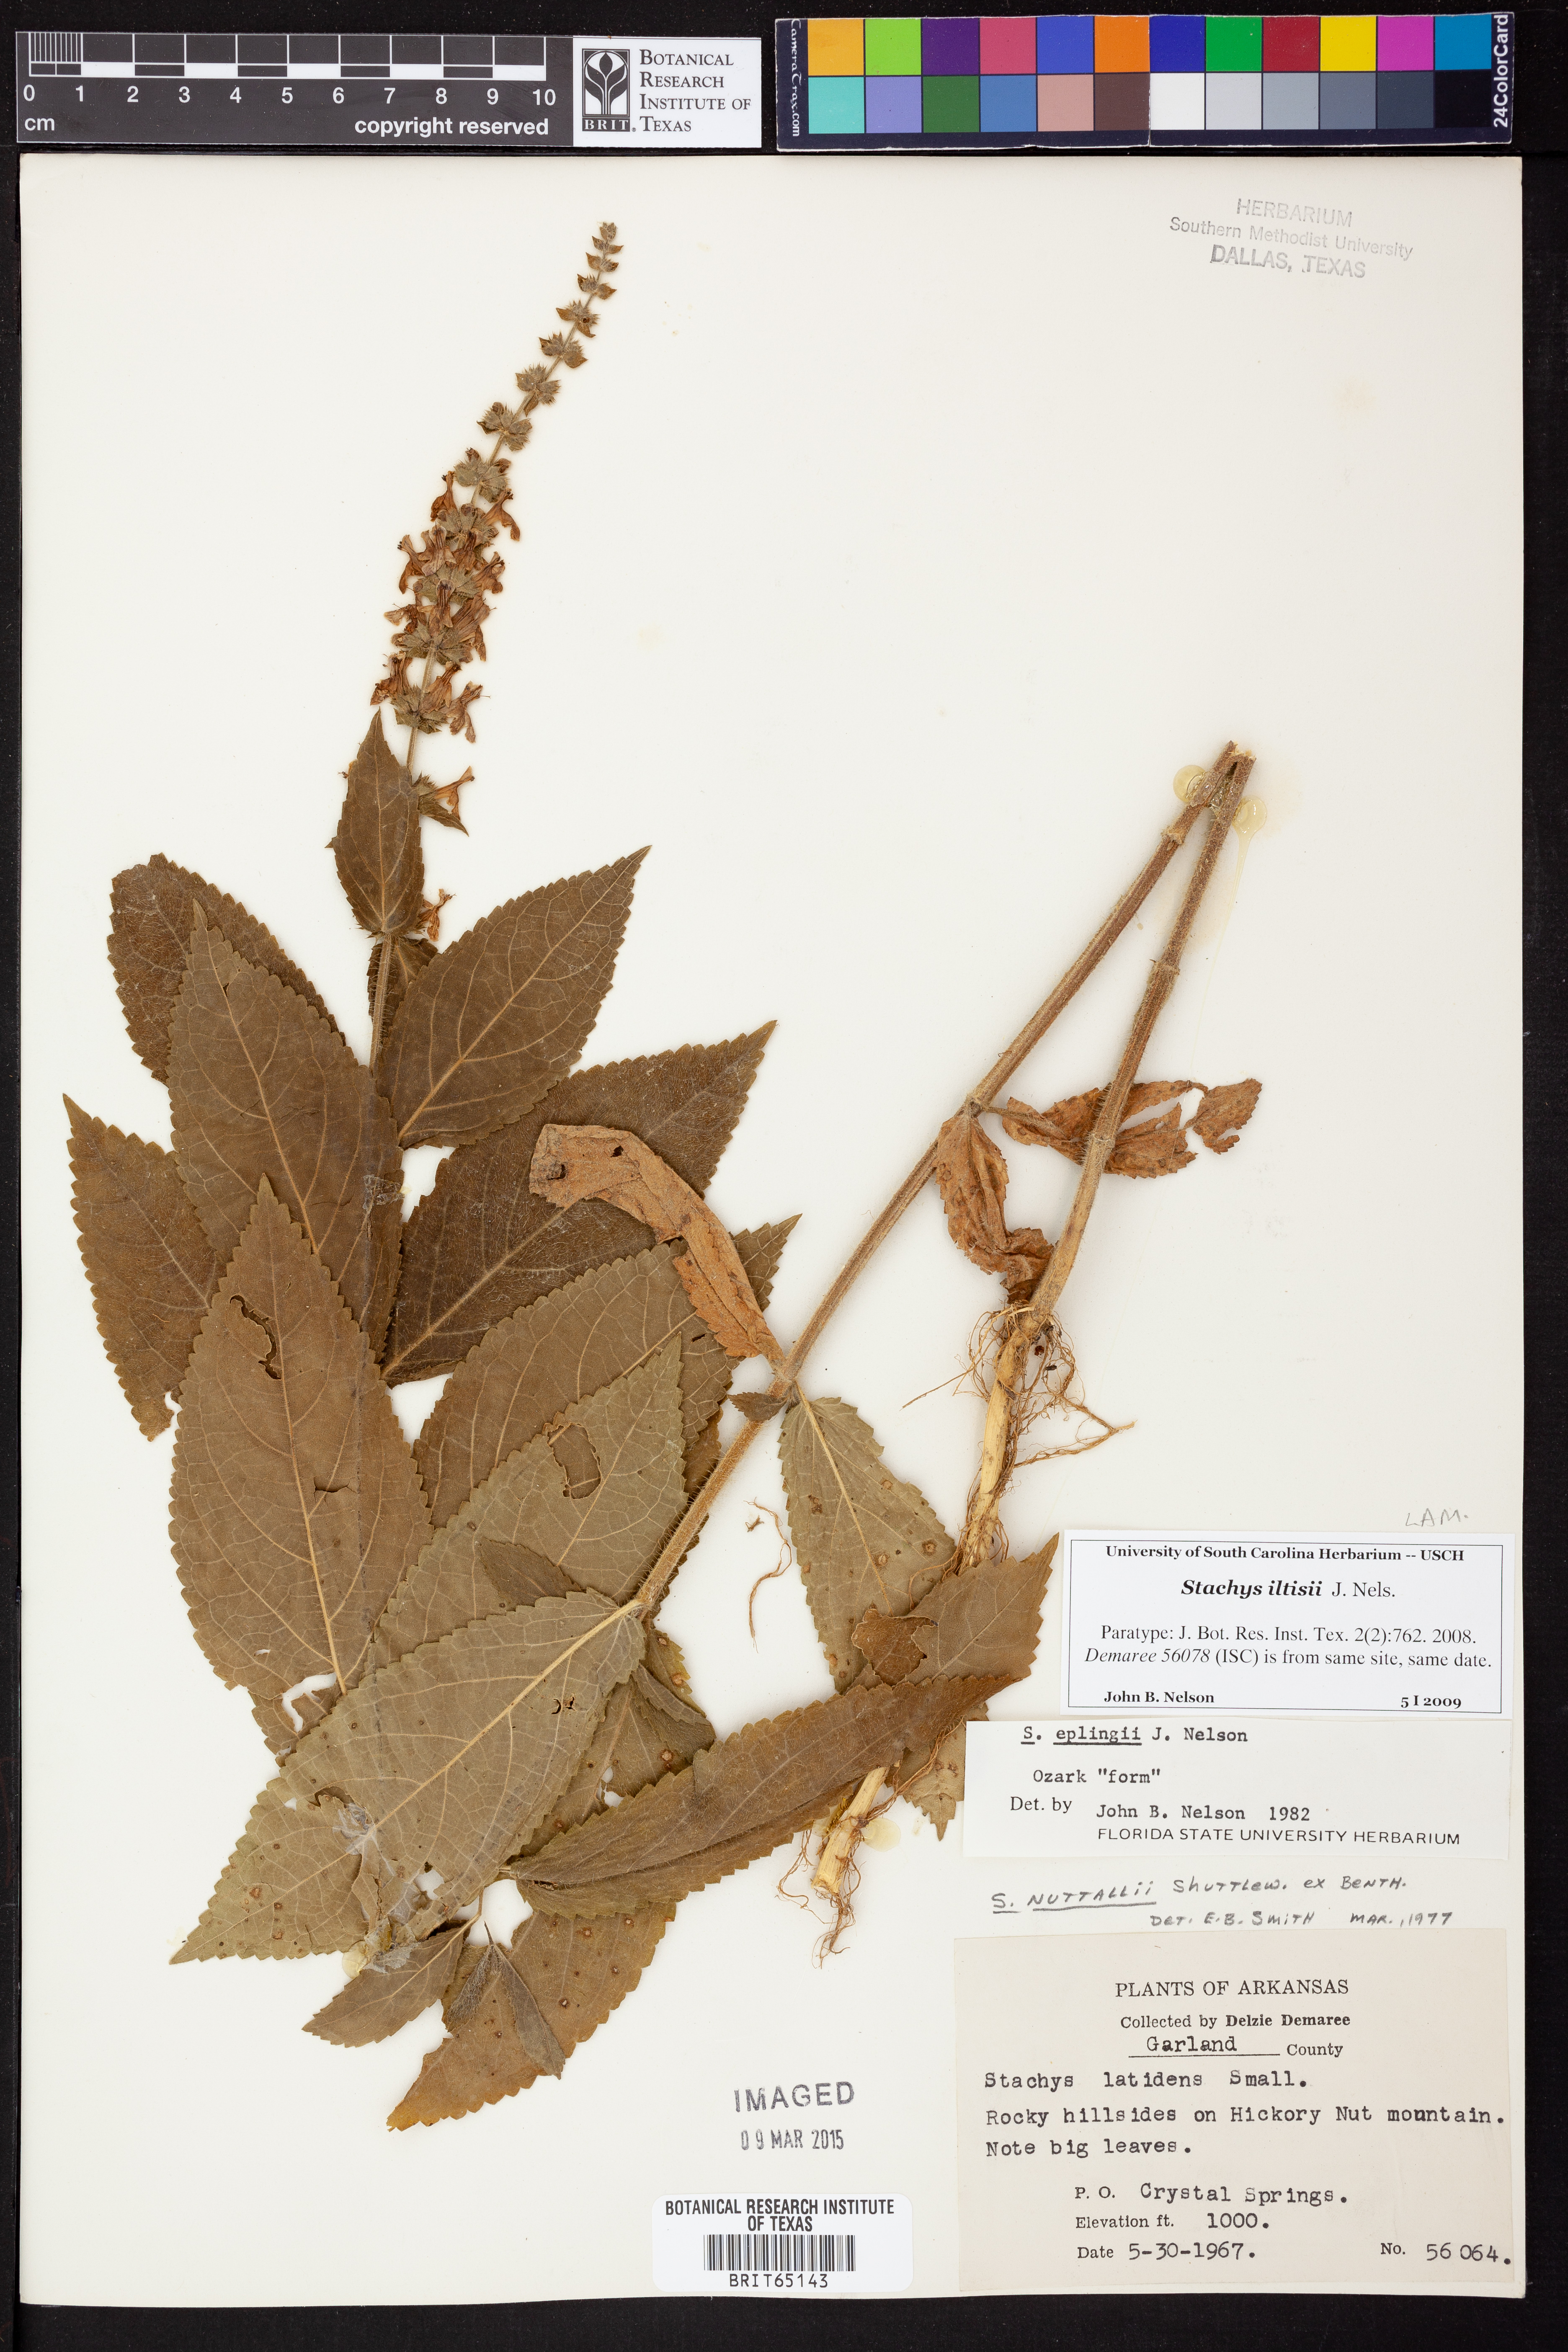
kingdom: Plantae
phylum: Tracheophyta
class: Magnoliopsida
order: Lamiales
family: Lamiaceae
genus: Stachys
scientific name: Stachys iltisii
